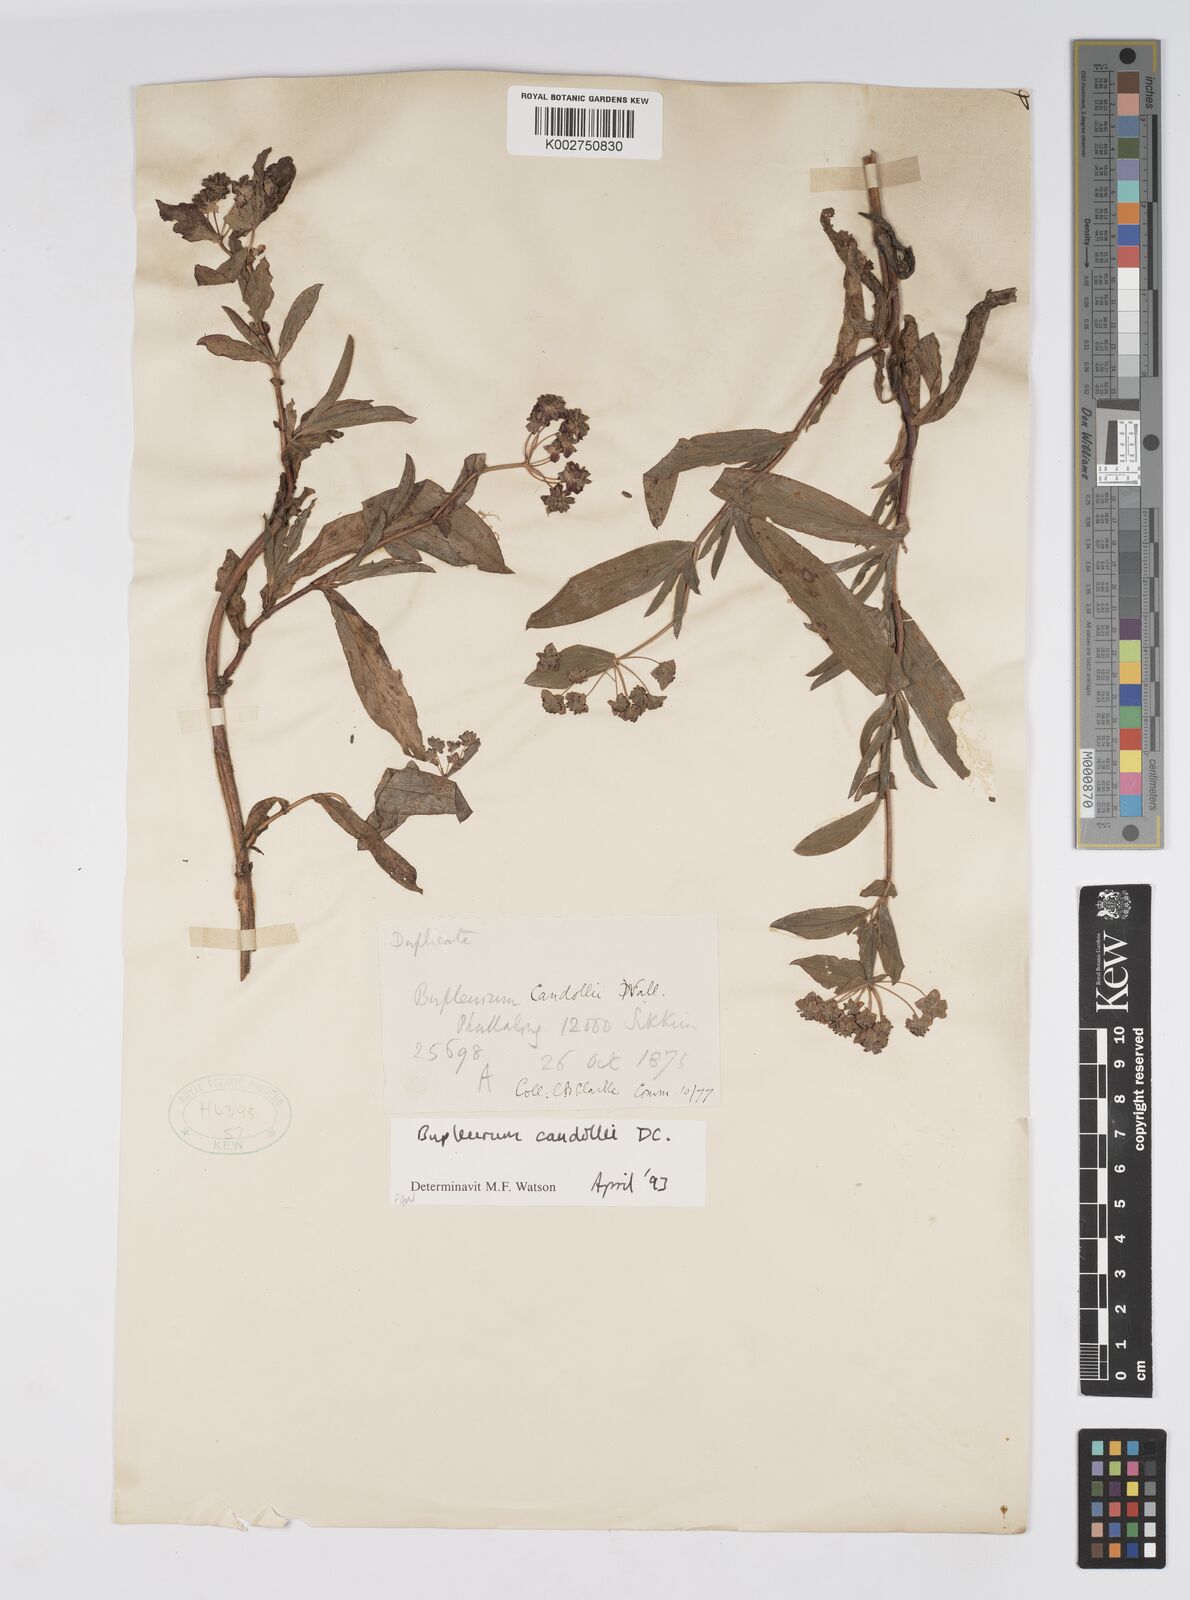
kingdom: Plantae
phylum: Tracheophyta
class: Magnoliopsida
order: Apiales
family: Apiaceae
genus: Bupleurum
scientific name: Bupleurum candollei
